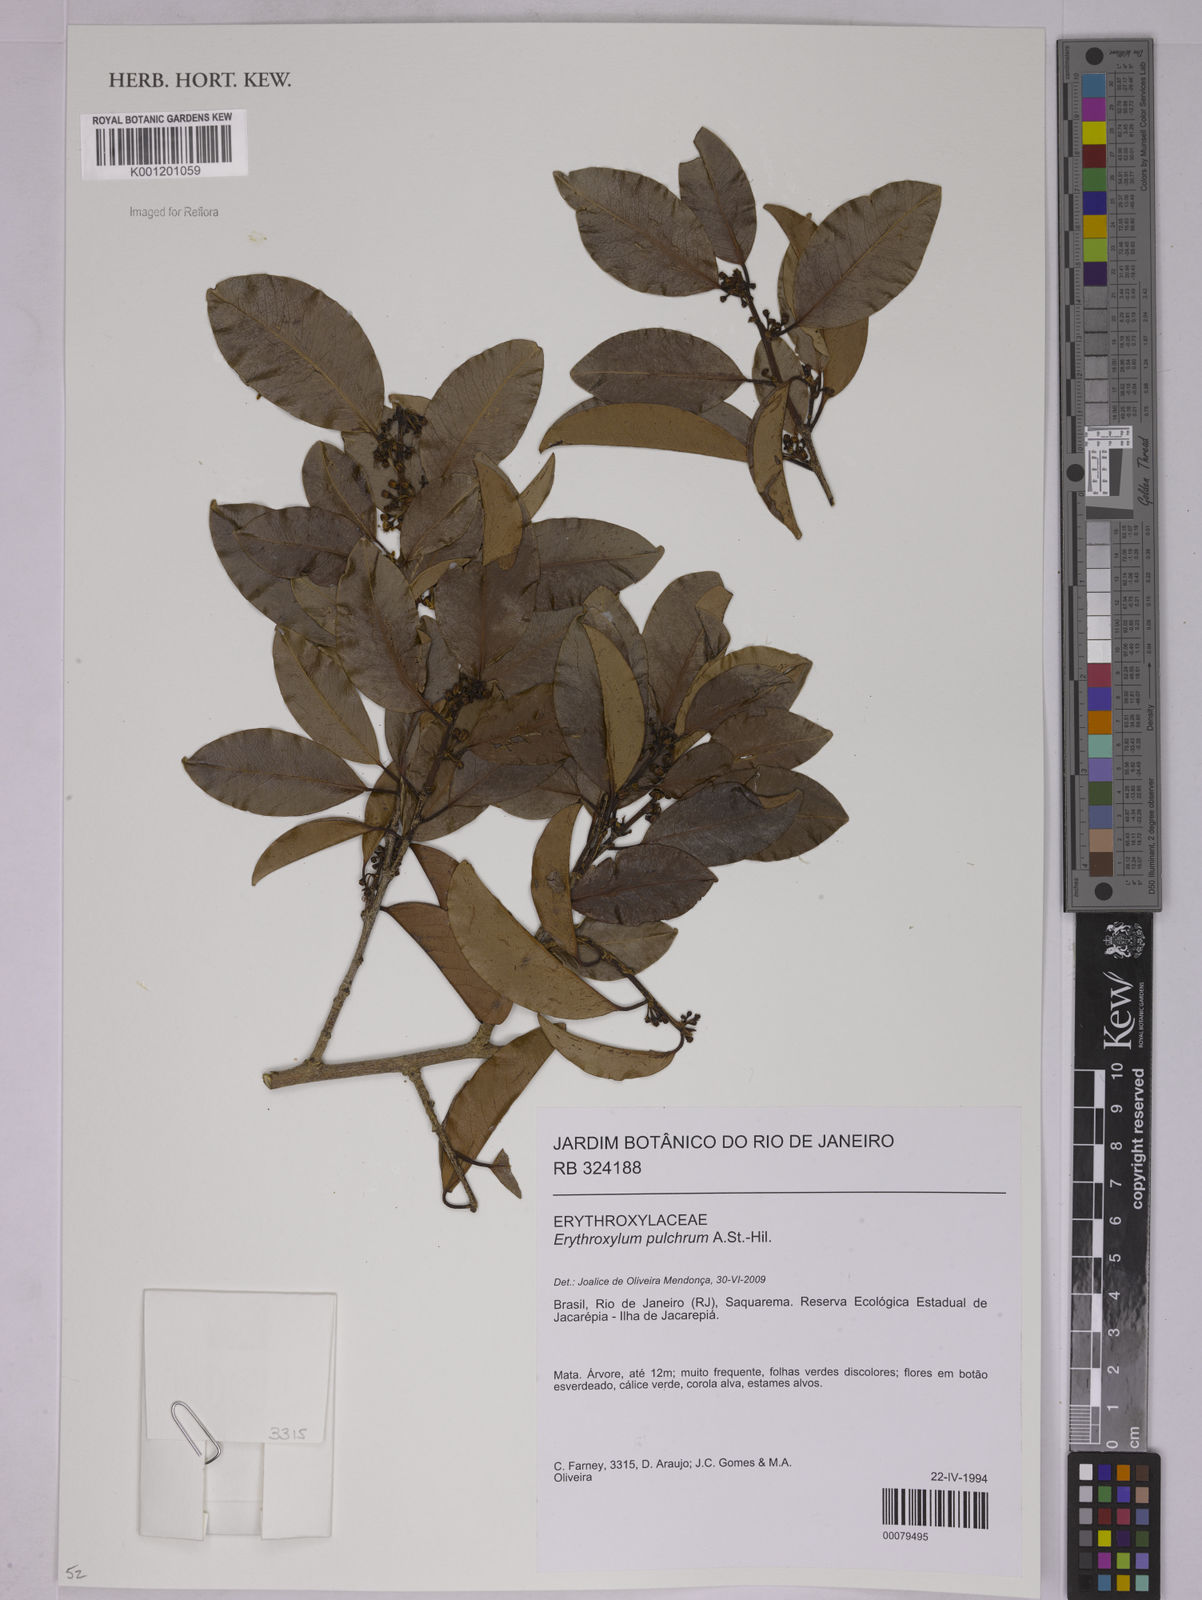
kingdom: Plantae
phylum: Tracheophyta
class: Magnoliopsida
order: Malpighiales
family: Erythroxylaceae
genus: Erythroxylum
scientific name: Erythroxylum pulchrum
